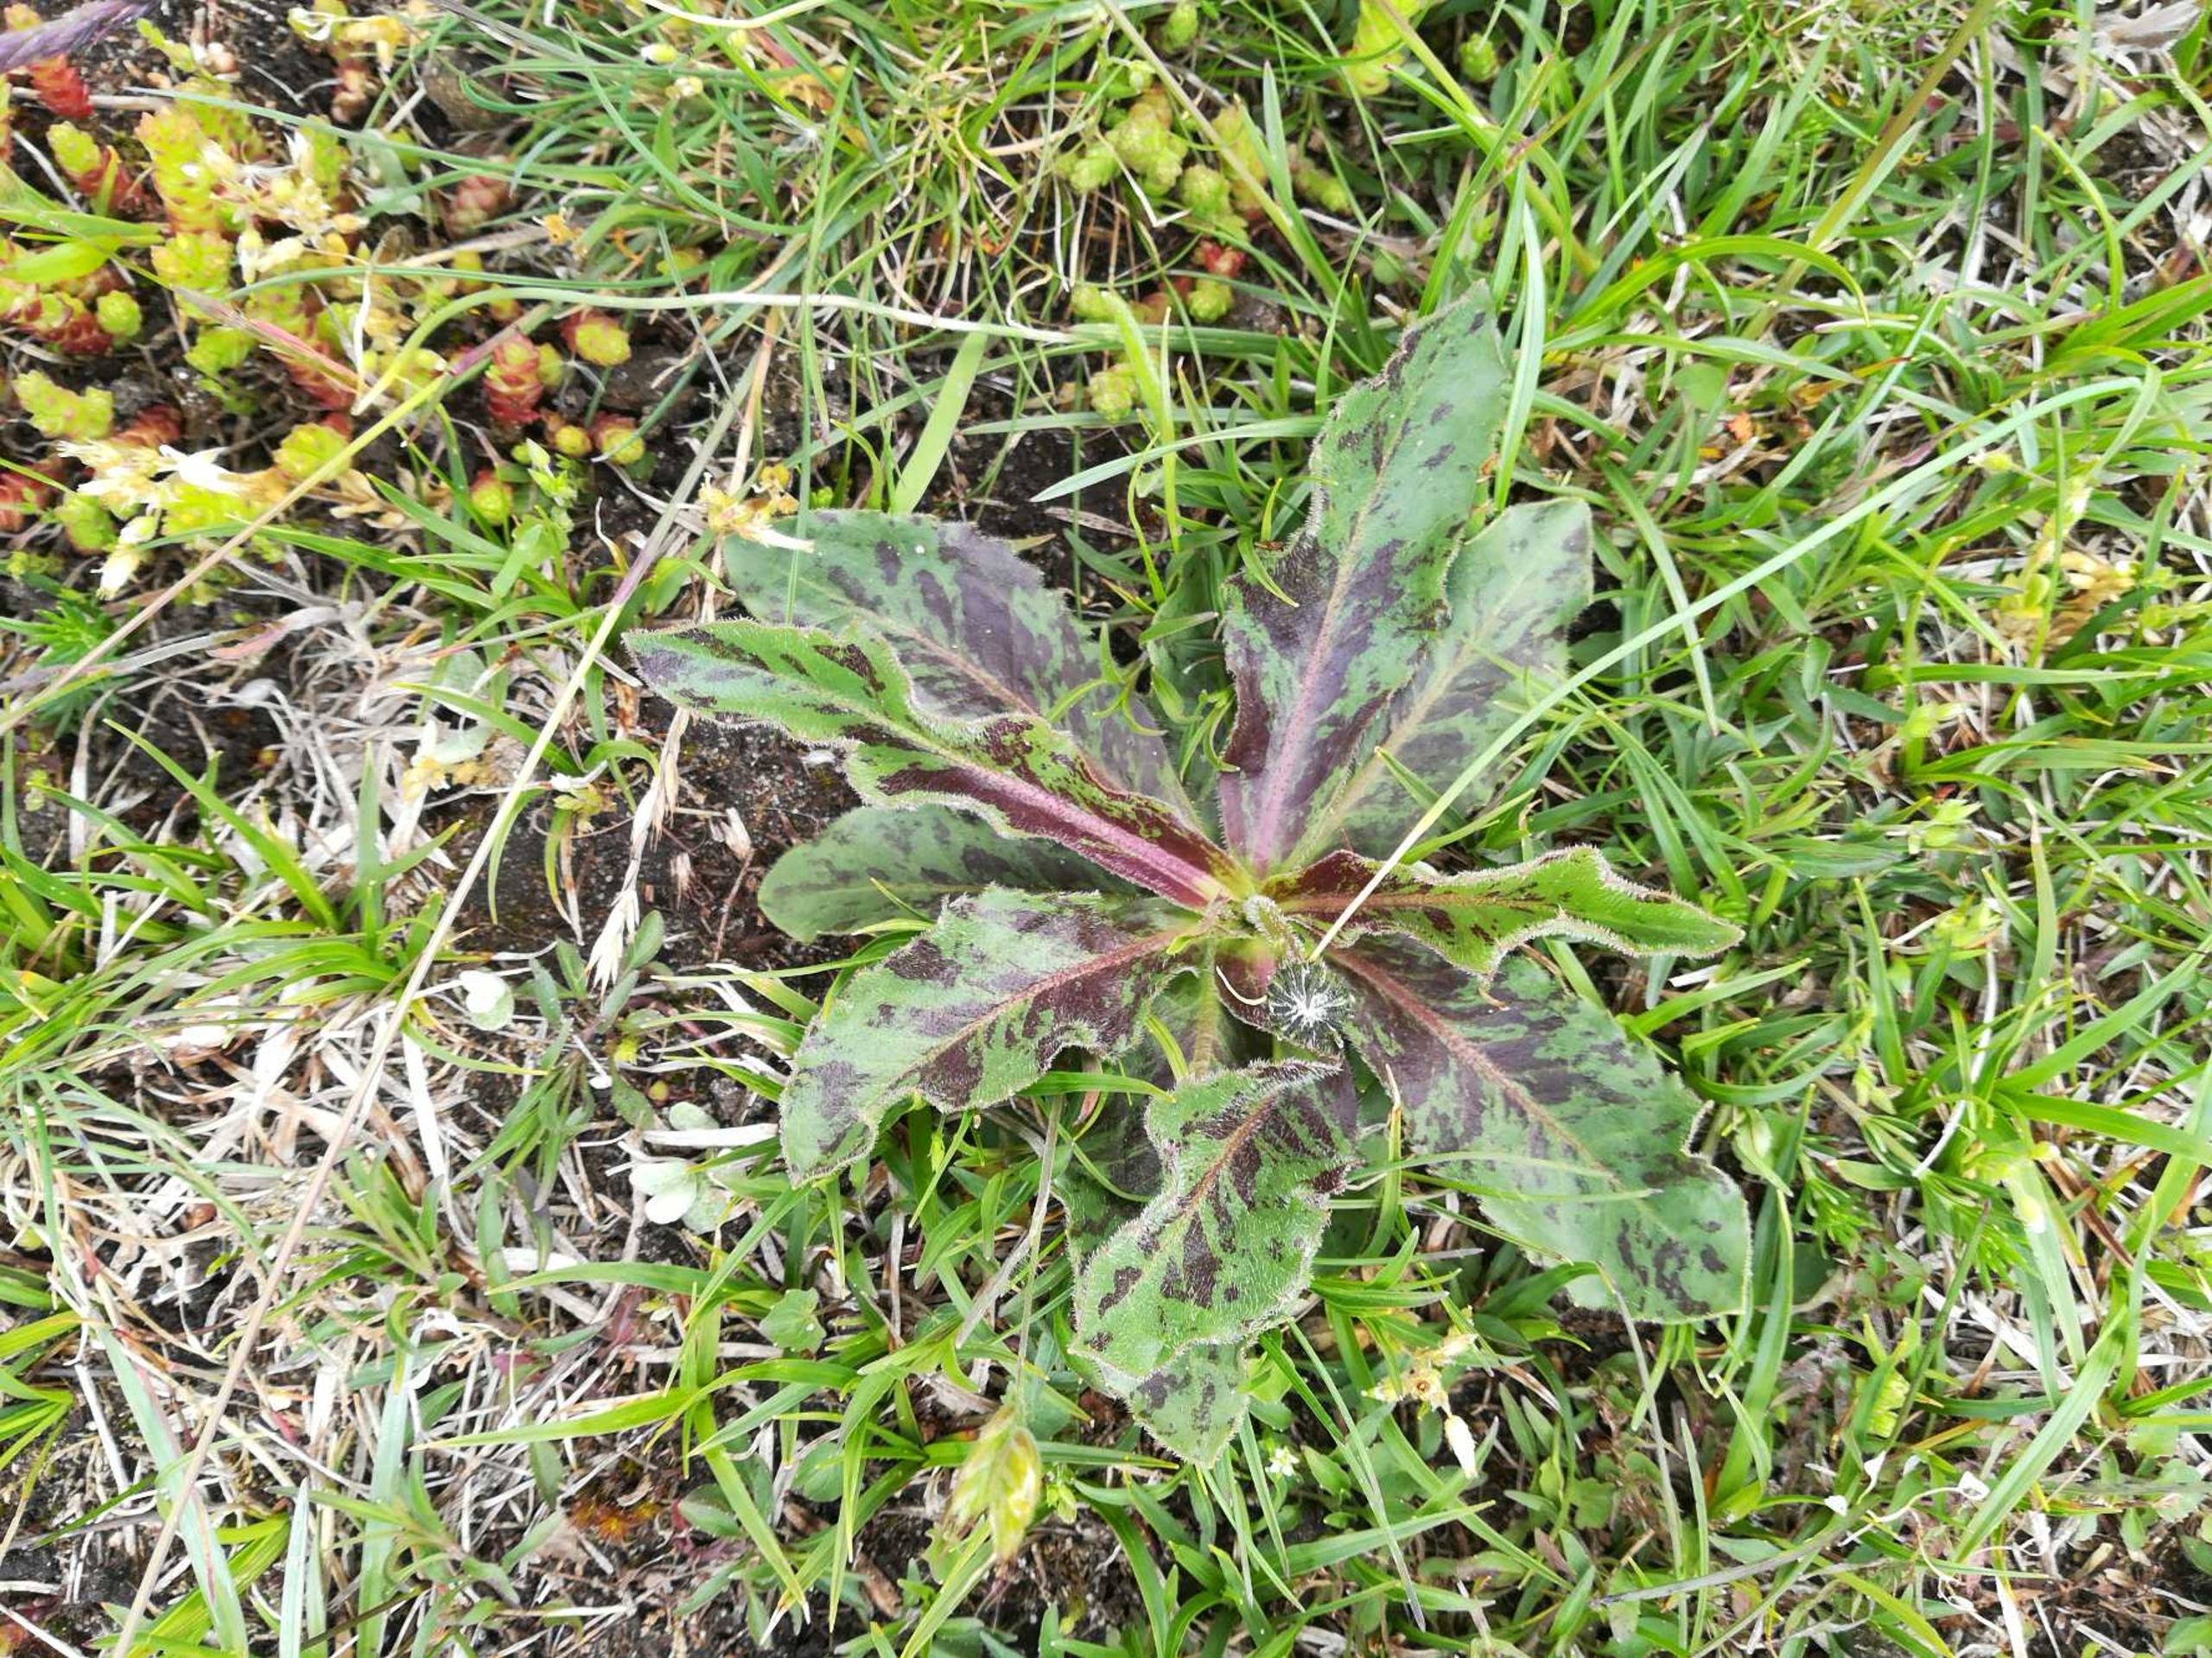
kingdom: Plantae
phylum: Tracheophyta
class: Magnoliopsida
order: Asterales
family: Asteraceae
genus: Trommsdorffia
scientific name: Trommsdorffia maculata
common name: Plettet kongepen
